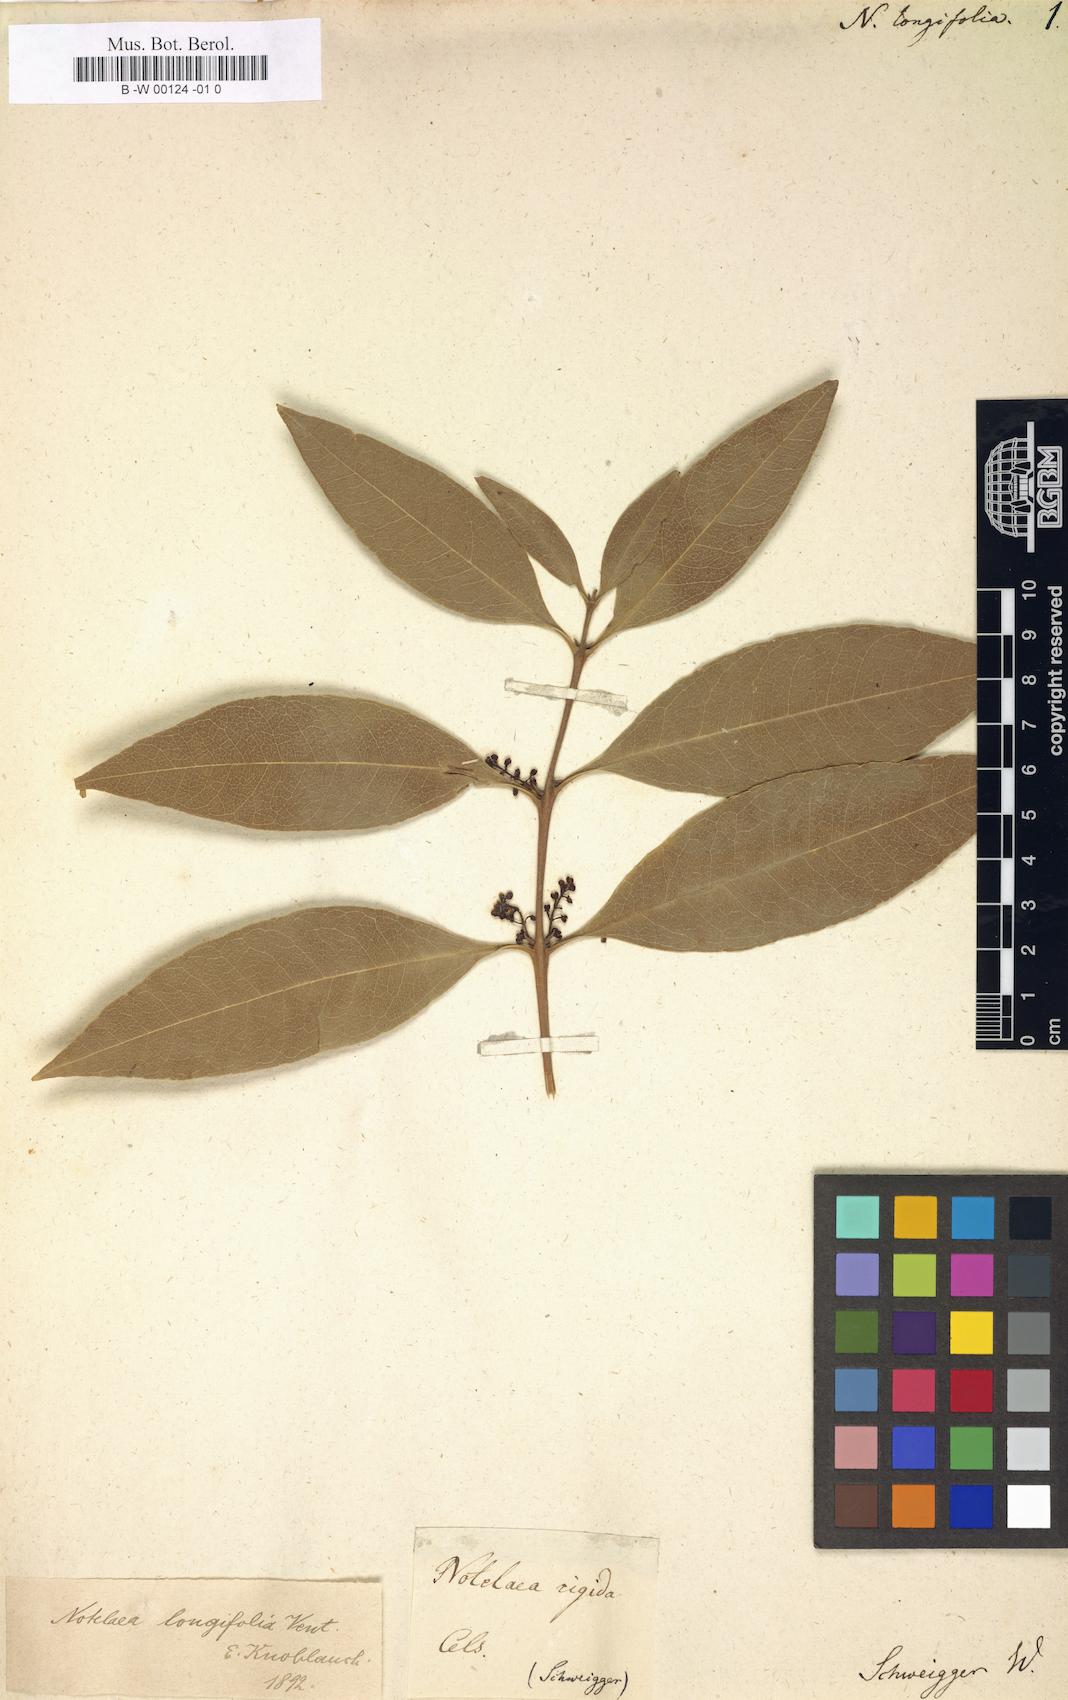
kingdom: Plantae
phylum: Tracheophyta
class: Magnoliopsida
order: Lamiales
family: Oleaceae
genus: Notelaea
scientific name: Notelaea longifolia
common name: Large mock olive
